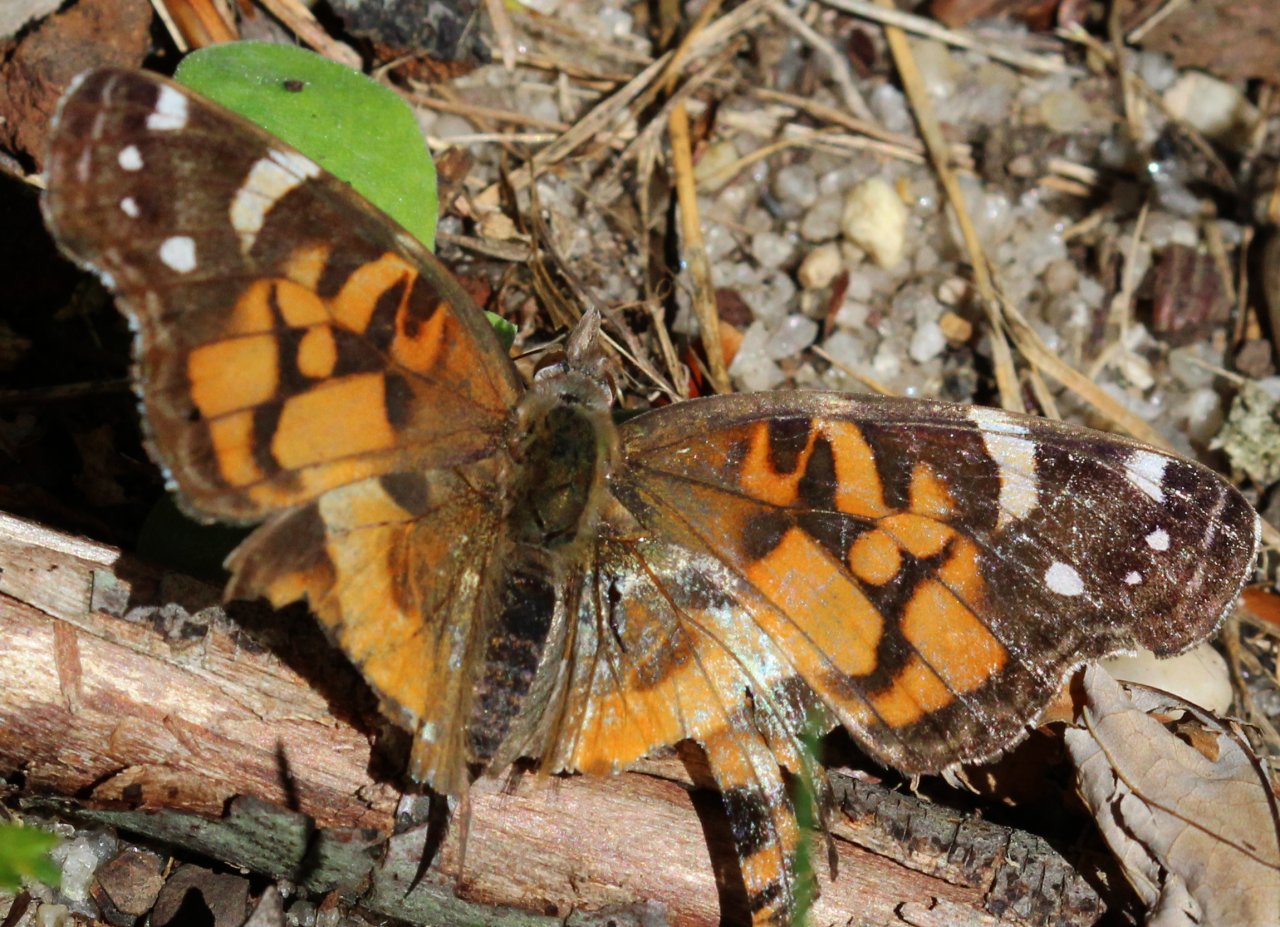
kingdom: Animalia
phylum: Arthropoda
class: Insecta
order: Lepidoptera
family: Nymphalidae
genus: Vanessa
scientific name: Vanessa virginiensis
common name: American Lady
